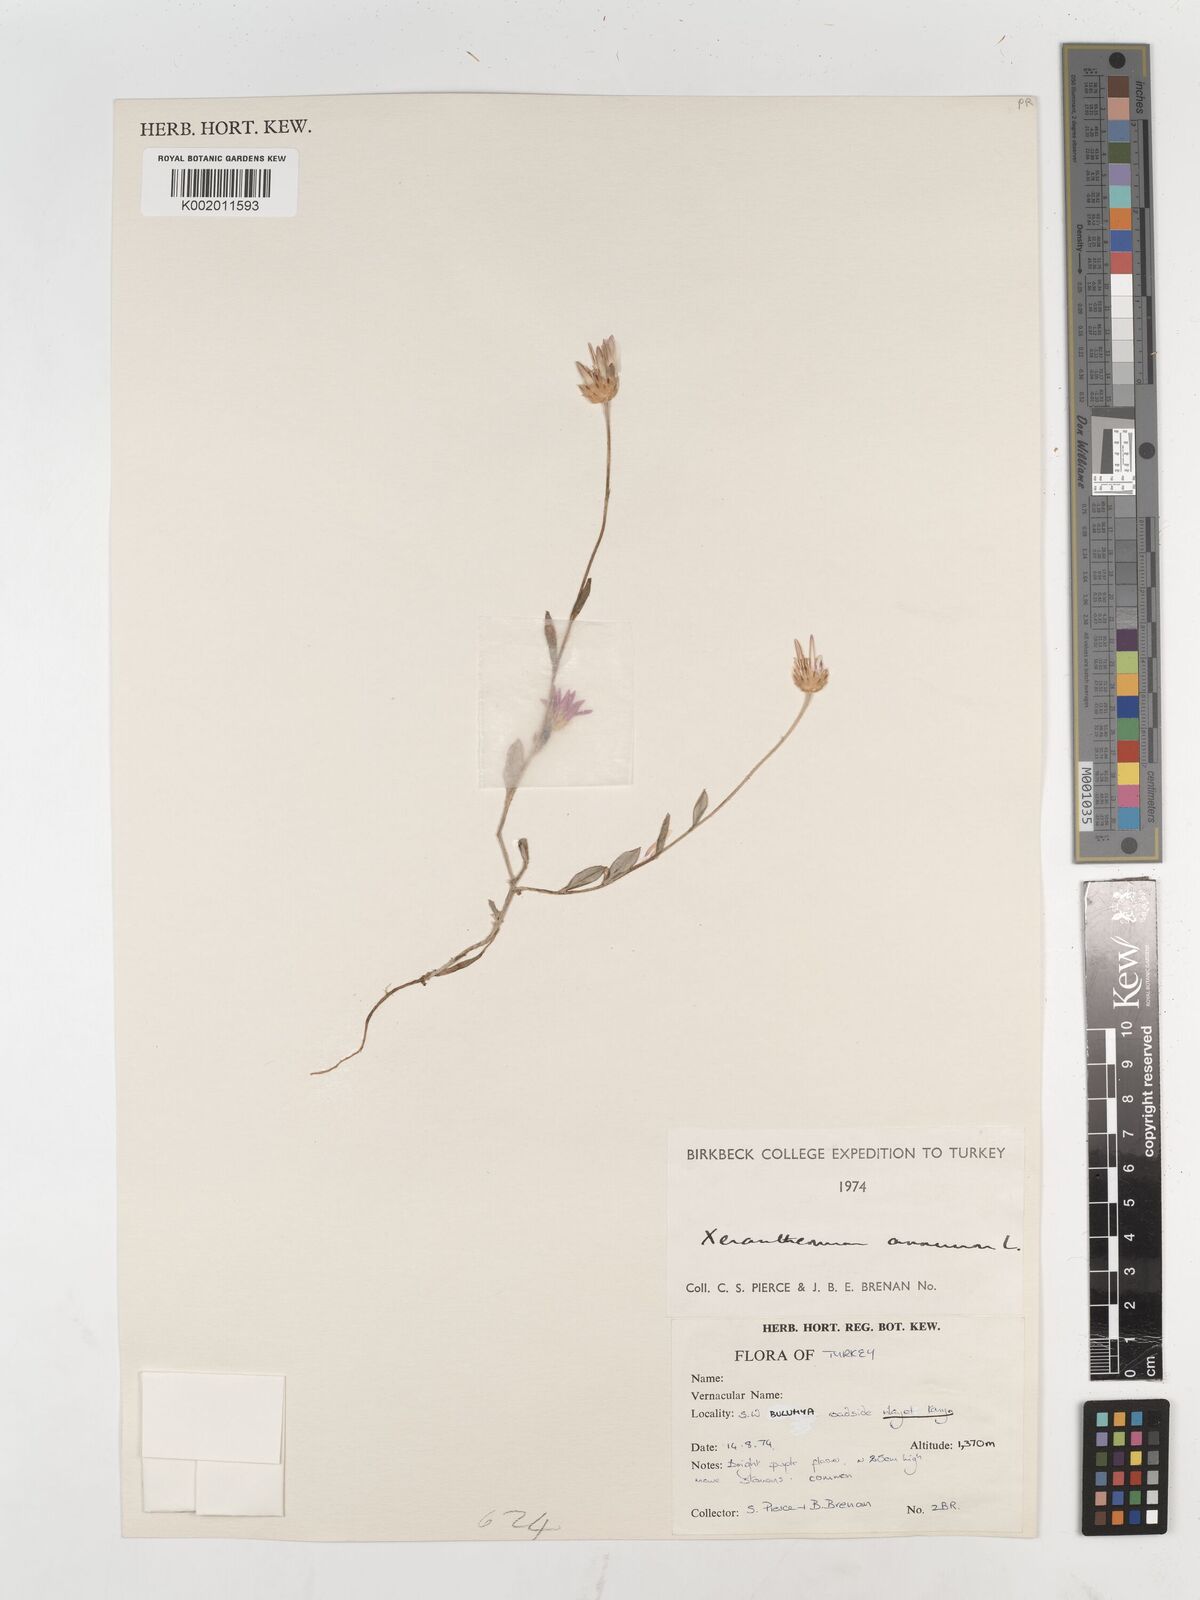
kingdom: Plantae
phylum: Tracheophyta
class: Magnoliopsida
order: Asterales
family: Asteraceae
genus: Xeranthemum
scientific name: Xeranthemum annuum
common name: Immortelle
